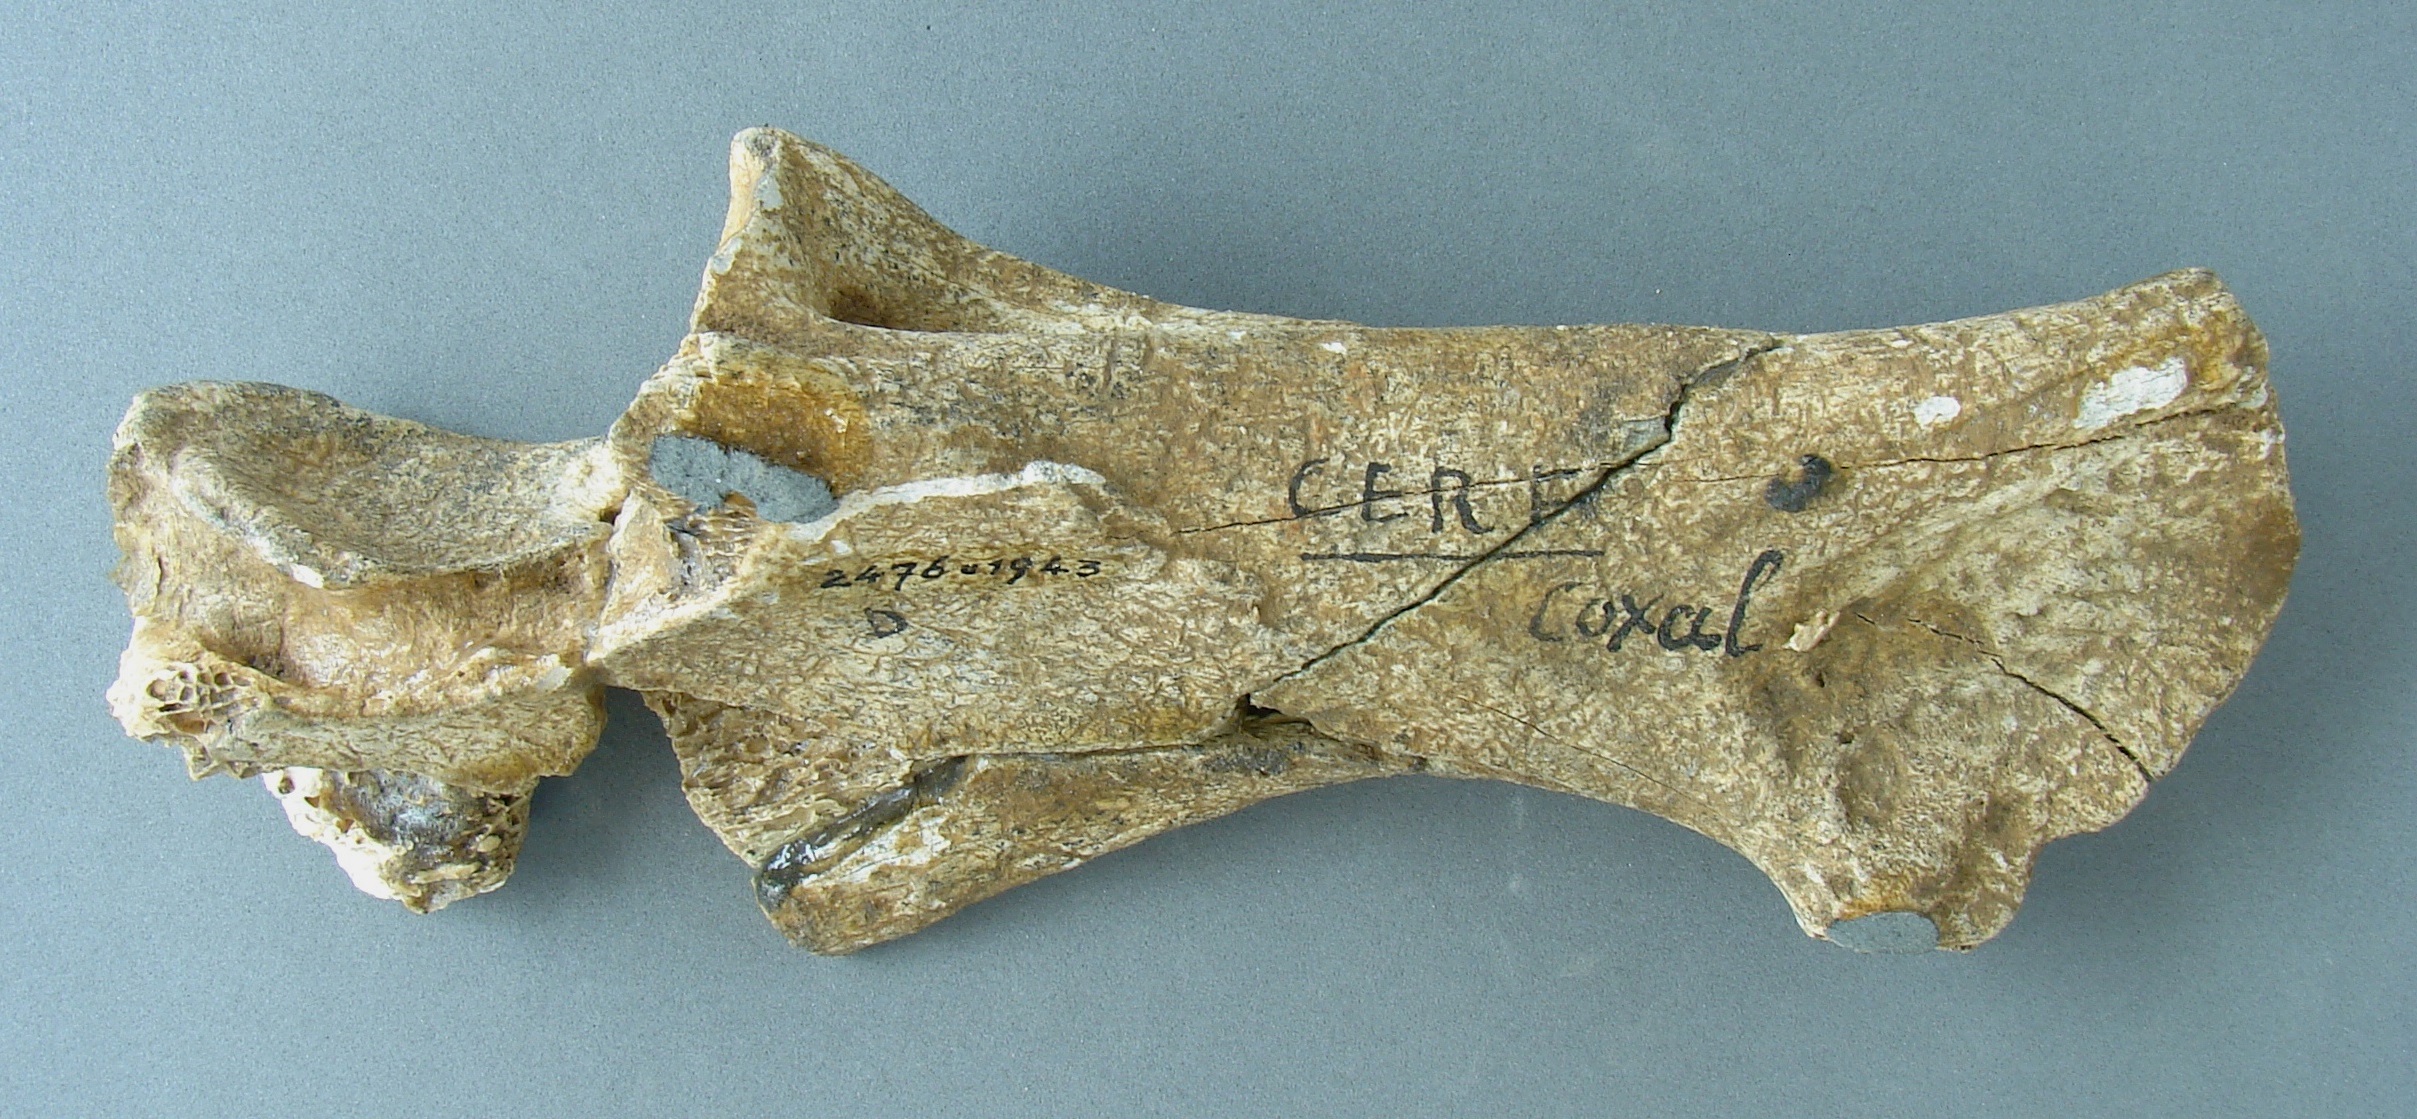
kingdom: Animalia
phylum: Chordata
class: Mammalia
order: Artiodactyla
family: Cervidae
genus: Cervus
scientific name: Cervus elaphus
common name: Red deer
